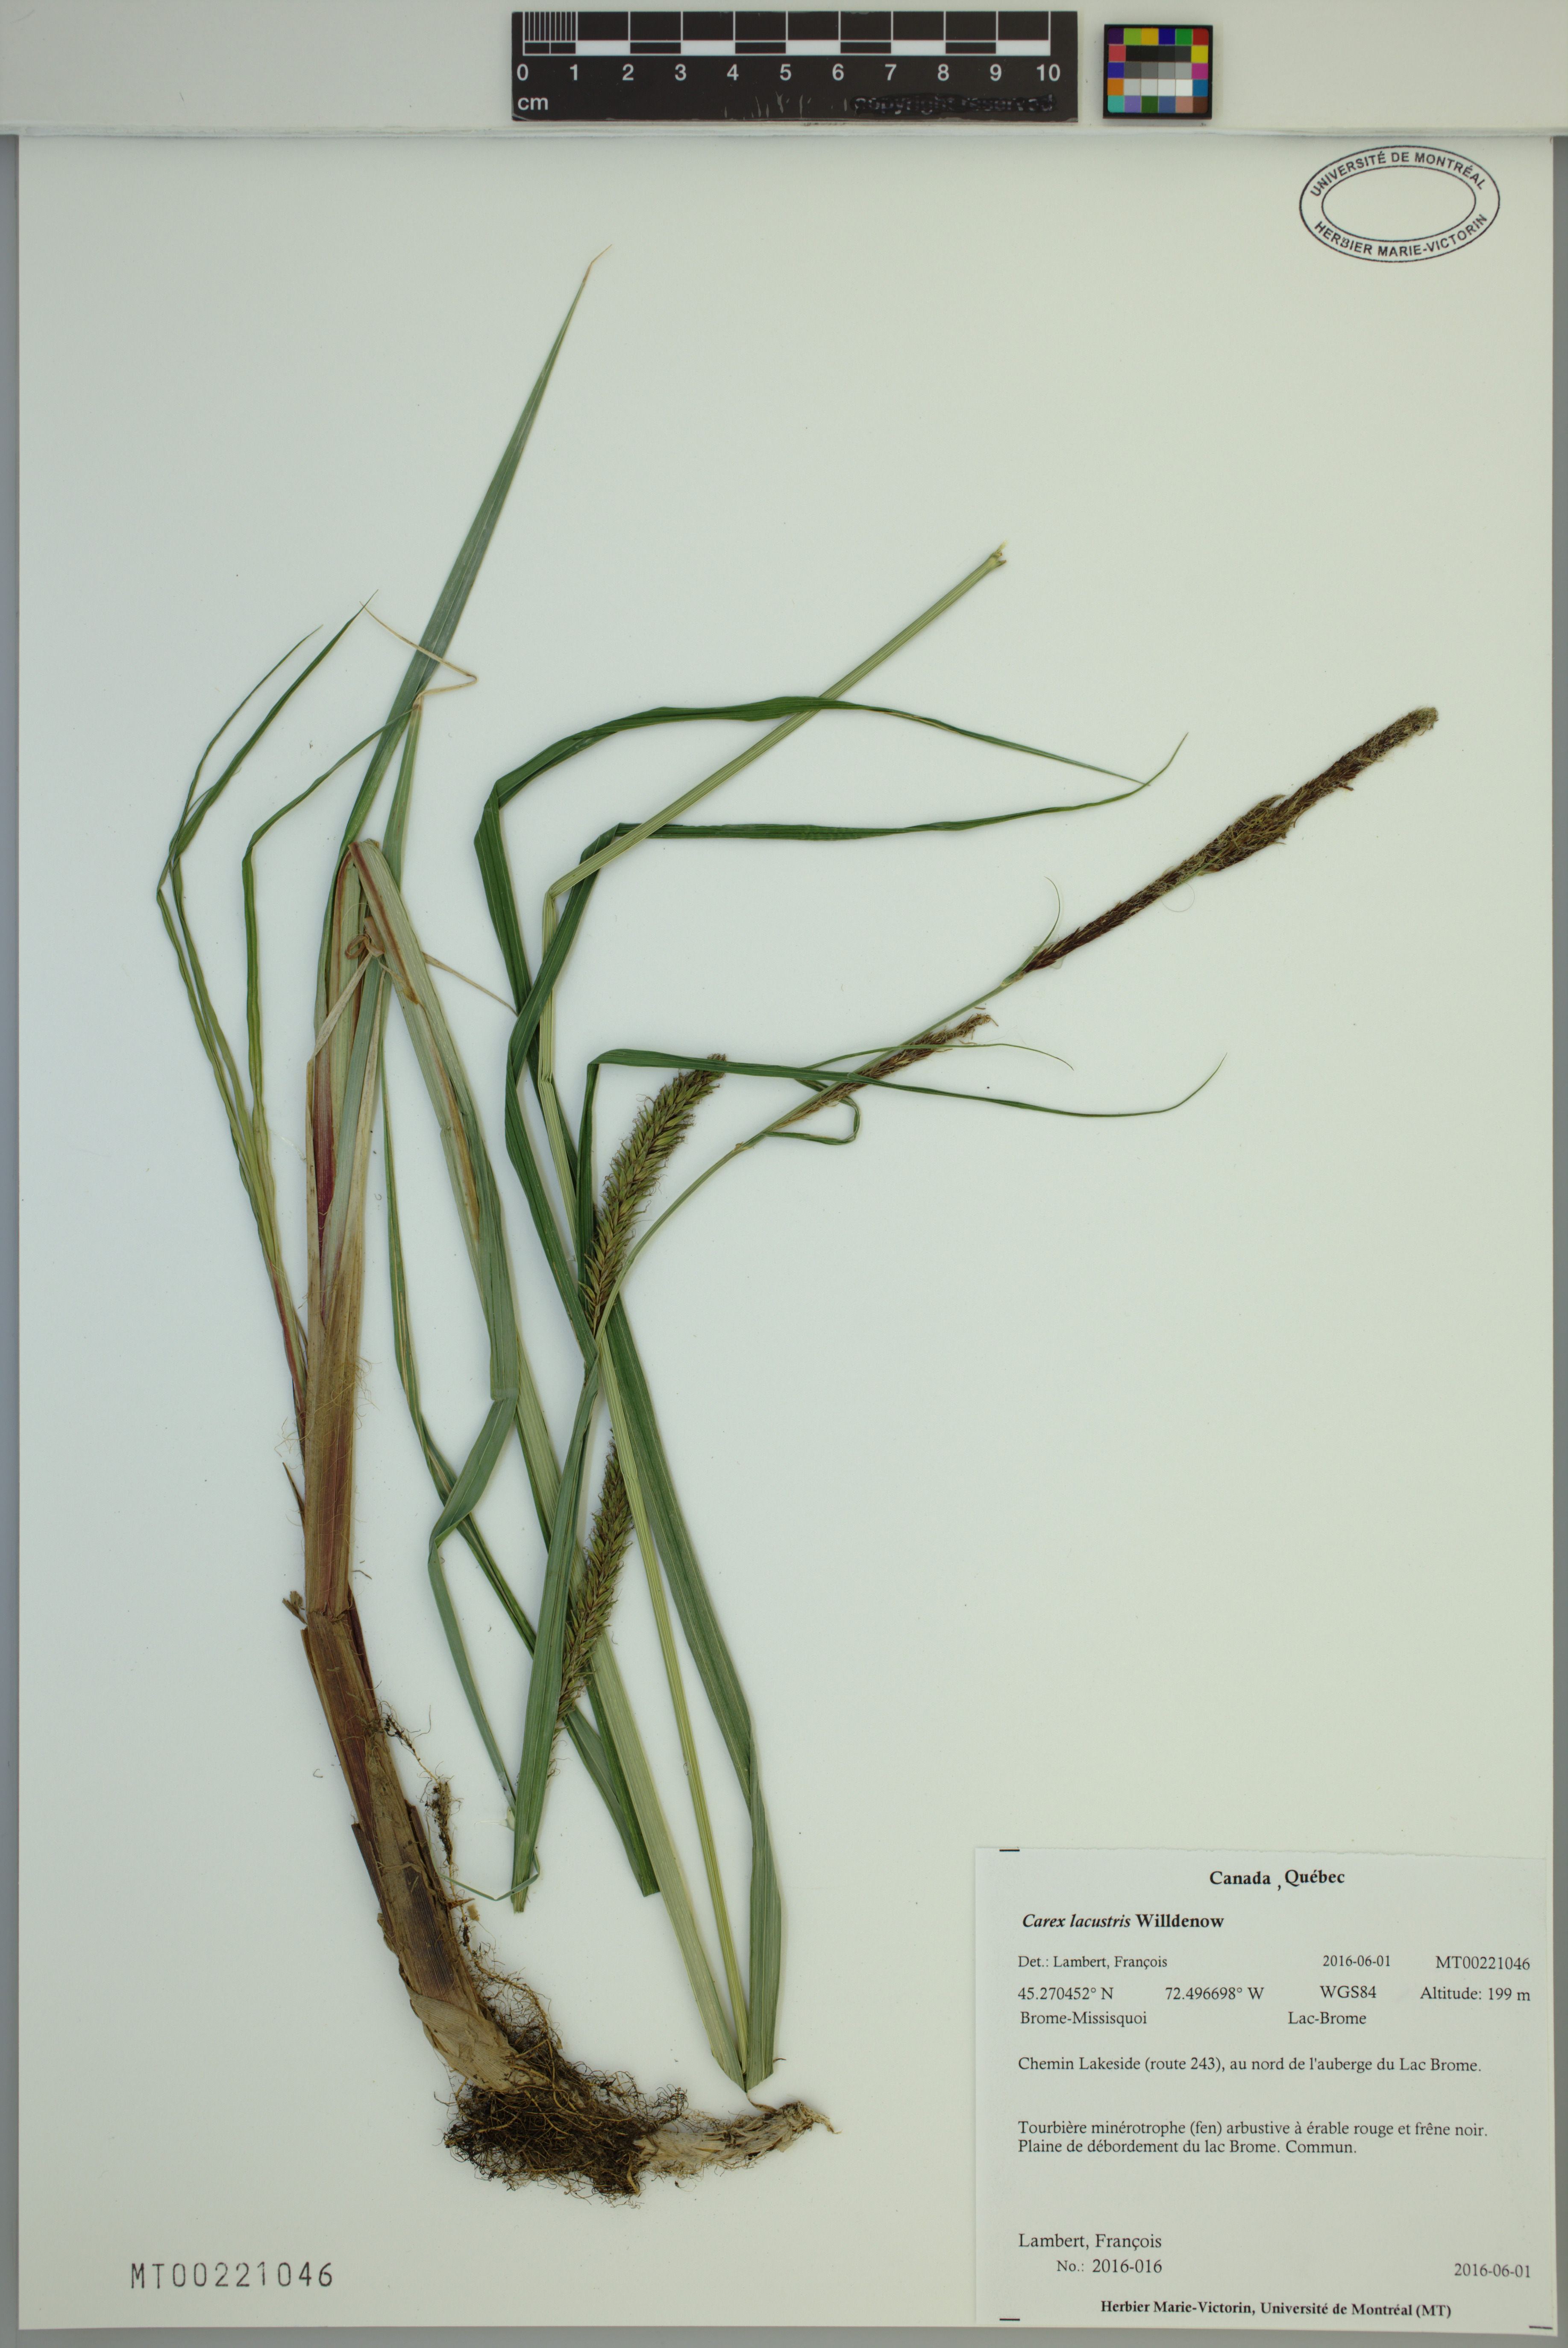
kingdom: Plantae
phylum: Tracheophyta
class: Liliopsida
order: Poales
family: Cyperaceae
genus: Carex
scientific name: Carex lacustris
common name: Common lake sedge
